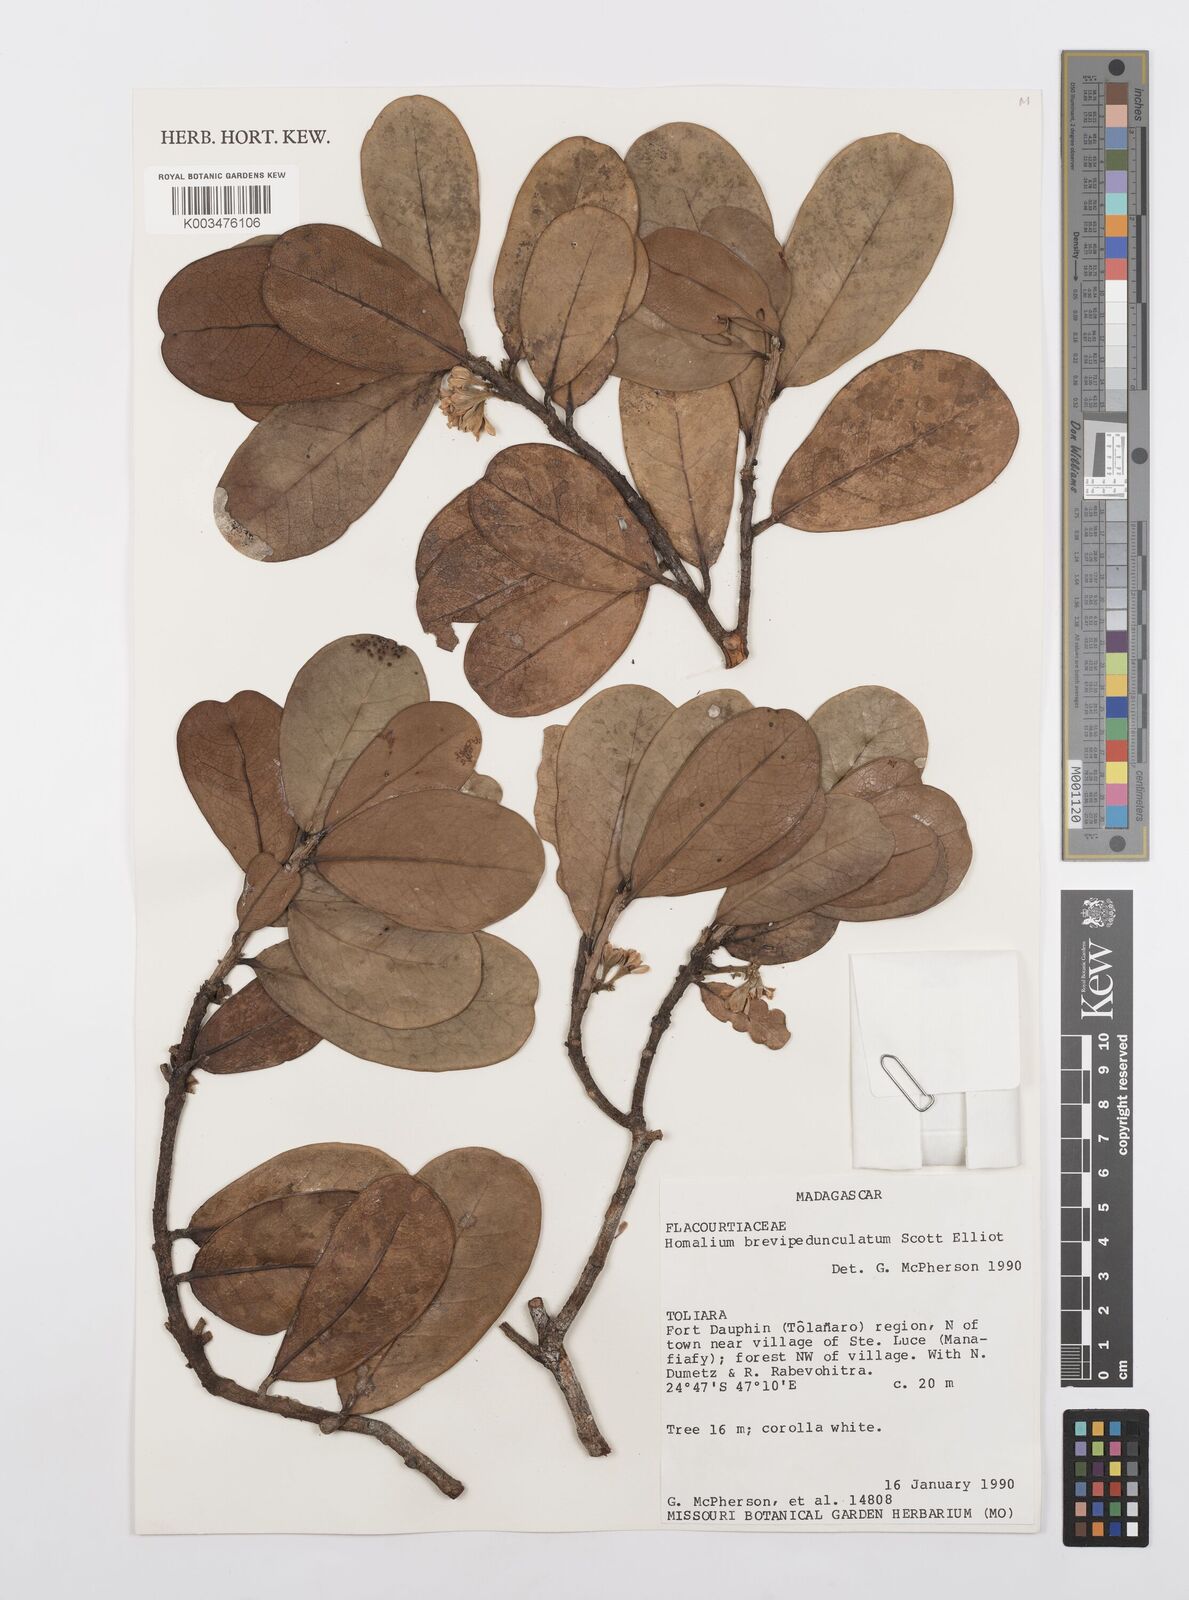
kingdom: Plantae
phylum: Tracheophyta
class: Magnoliopsida
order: Malpighiales
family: Salicaceae
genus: Homalium
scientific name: Homalium brevipedunculatum
